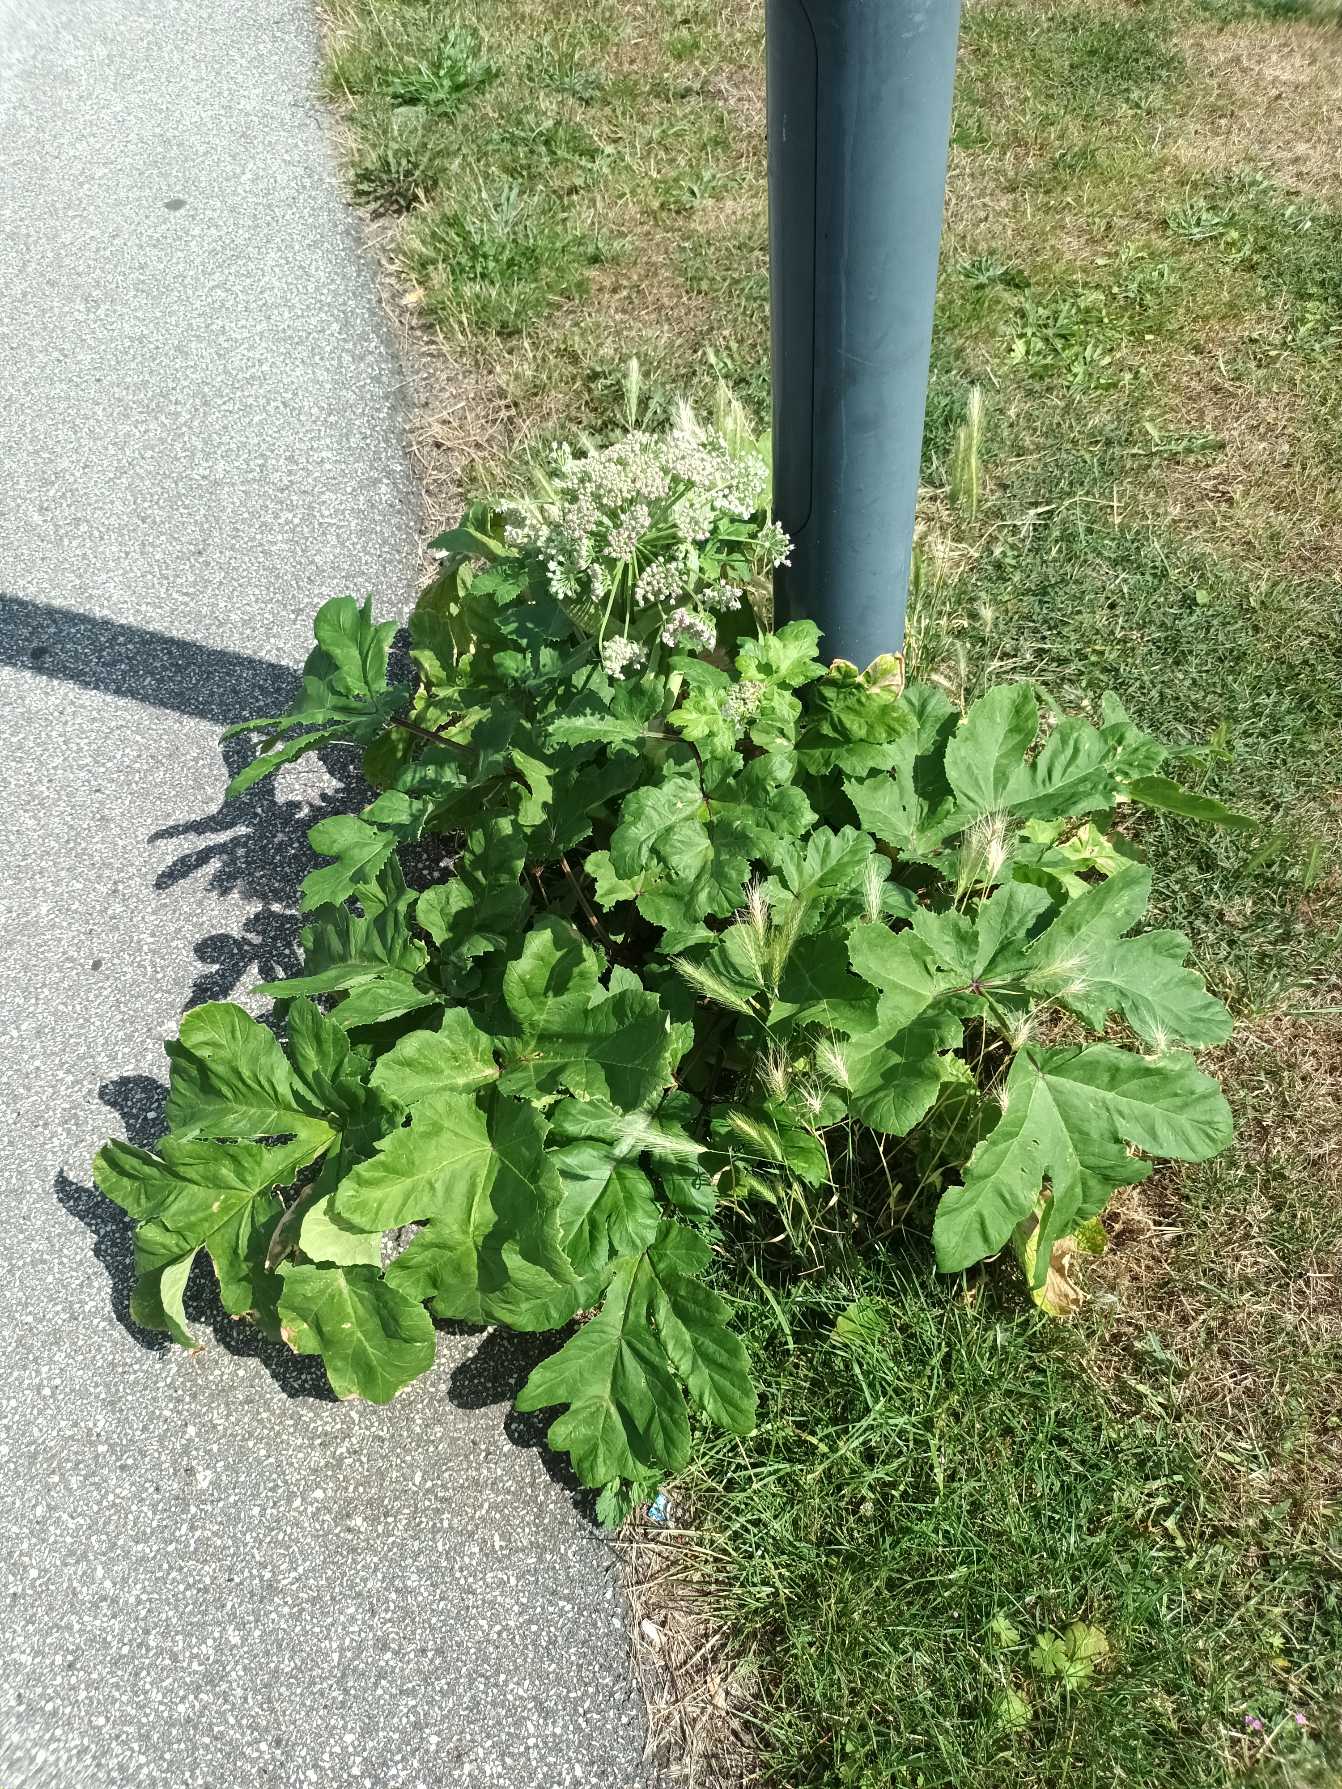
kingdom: Plantae
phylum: Tracheophyta
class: Magnoliopsida
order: Apiales
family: Apiaceae
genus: Heracleum
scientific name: Heracleum sosnowskyi
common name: Rundlobet bjørneklo
